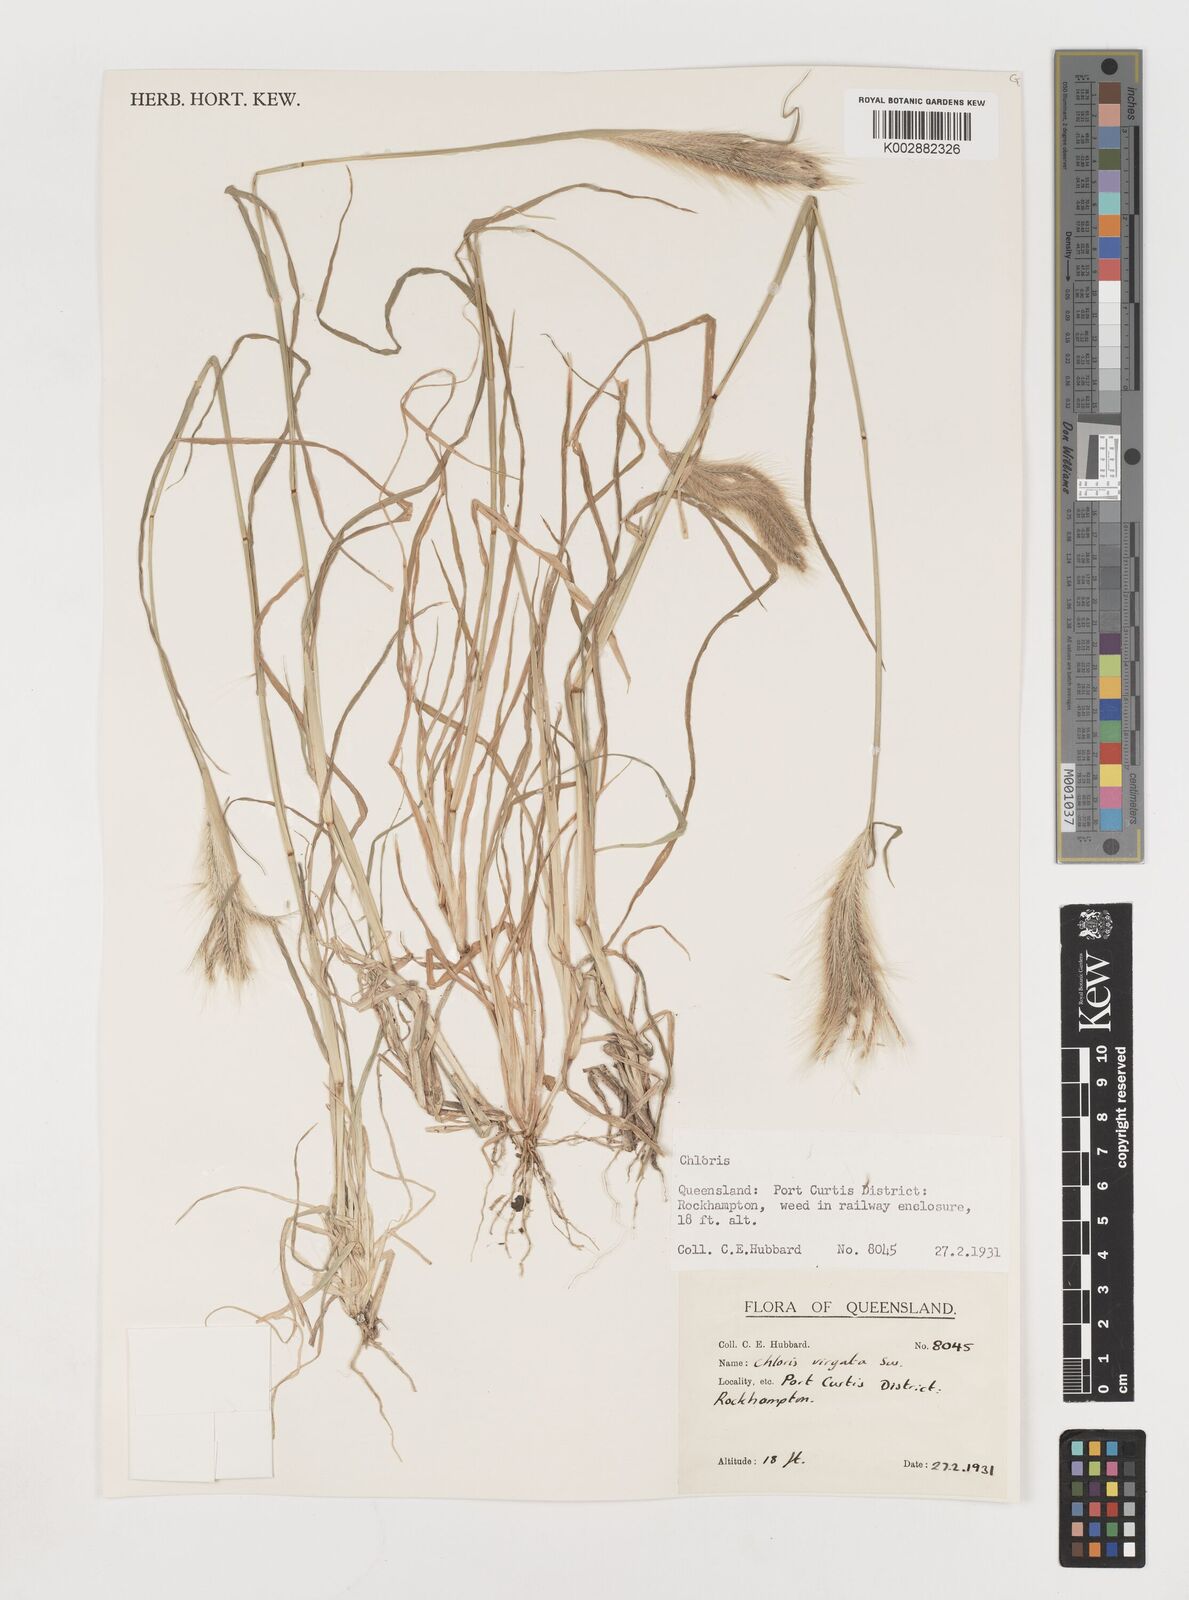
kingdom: Plantae
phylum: Tracheophyta
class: Liliopsida
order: Poales
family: Poaceae
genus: Chloris
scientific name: Chloris virgata
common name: Feathery rhodes-grass
